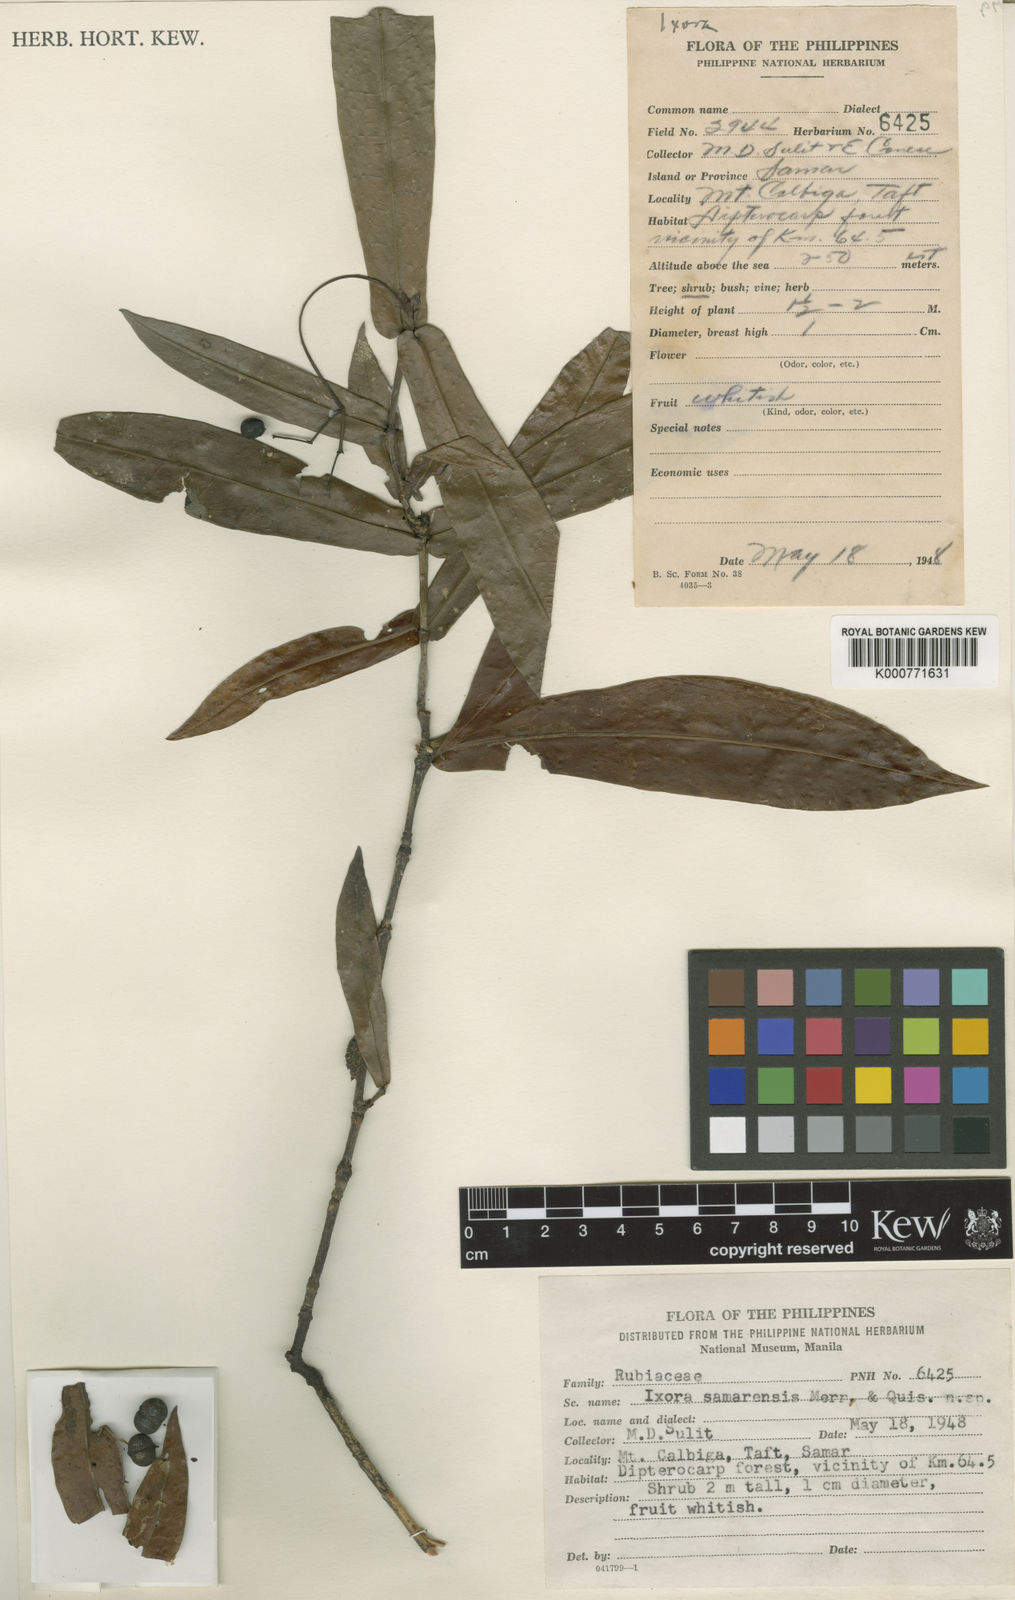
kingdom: Plantae
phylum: Tracheophyta
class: Magnoliopsida
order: Gentianales
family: Rubiaceae
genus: Ixora
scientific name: Ixora samarensis
